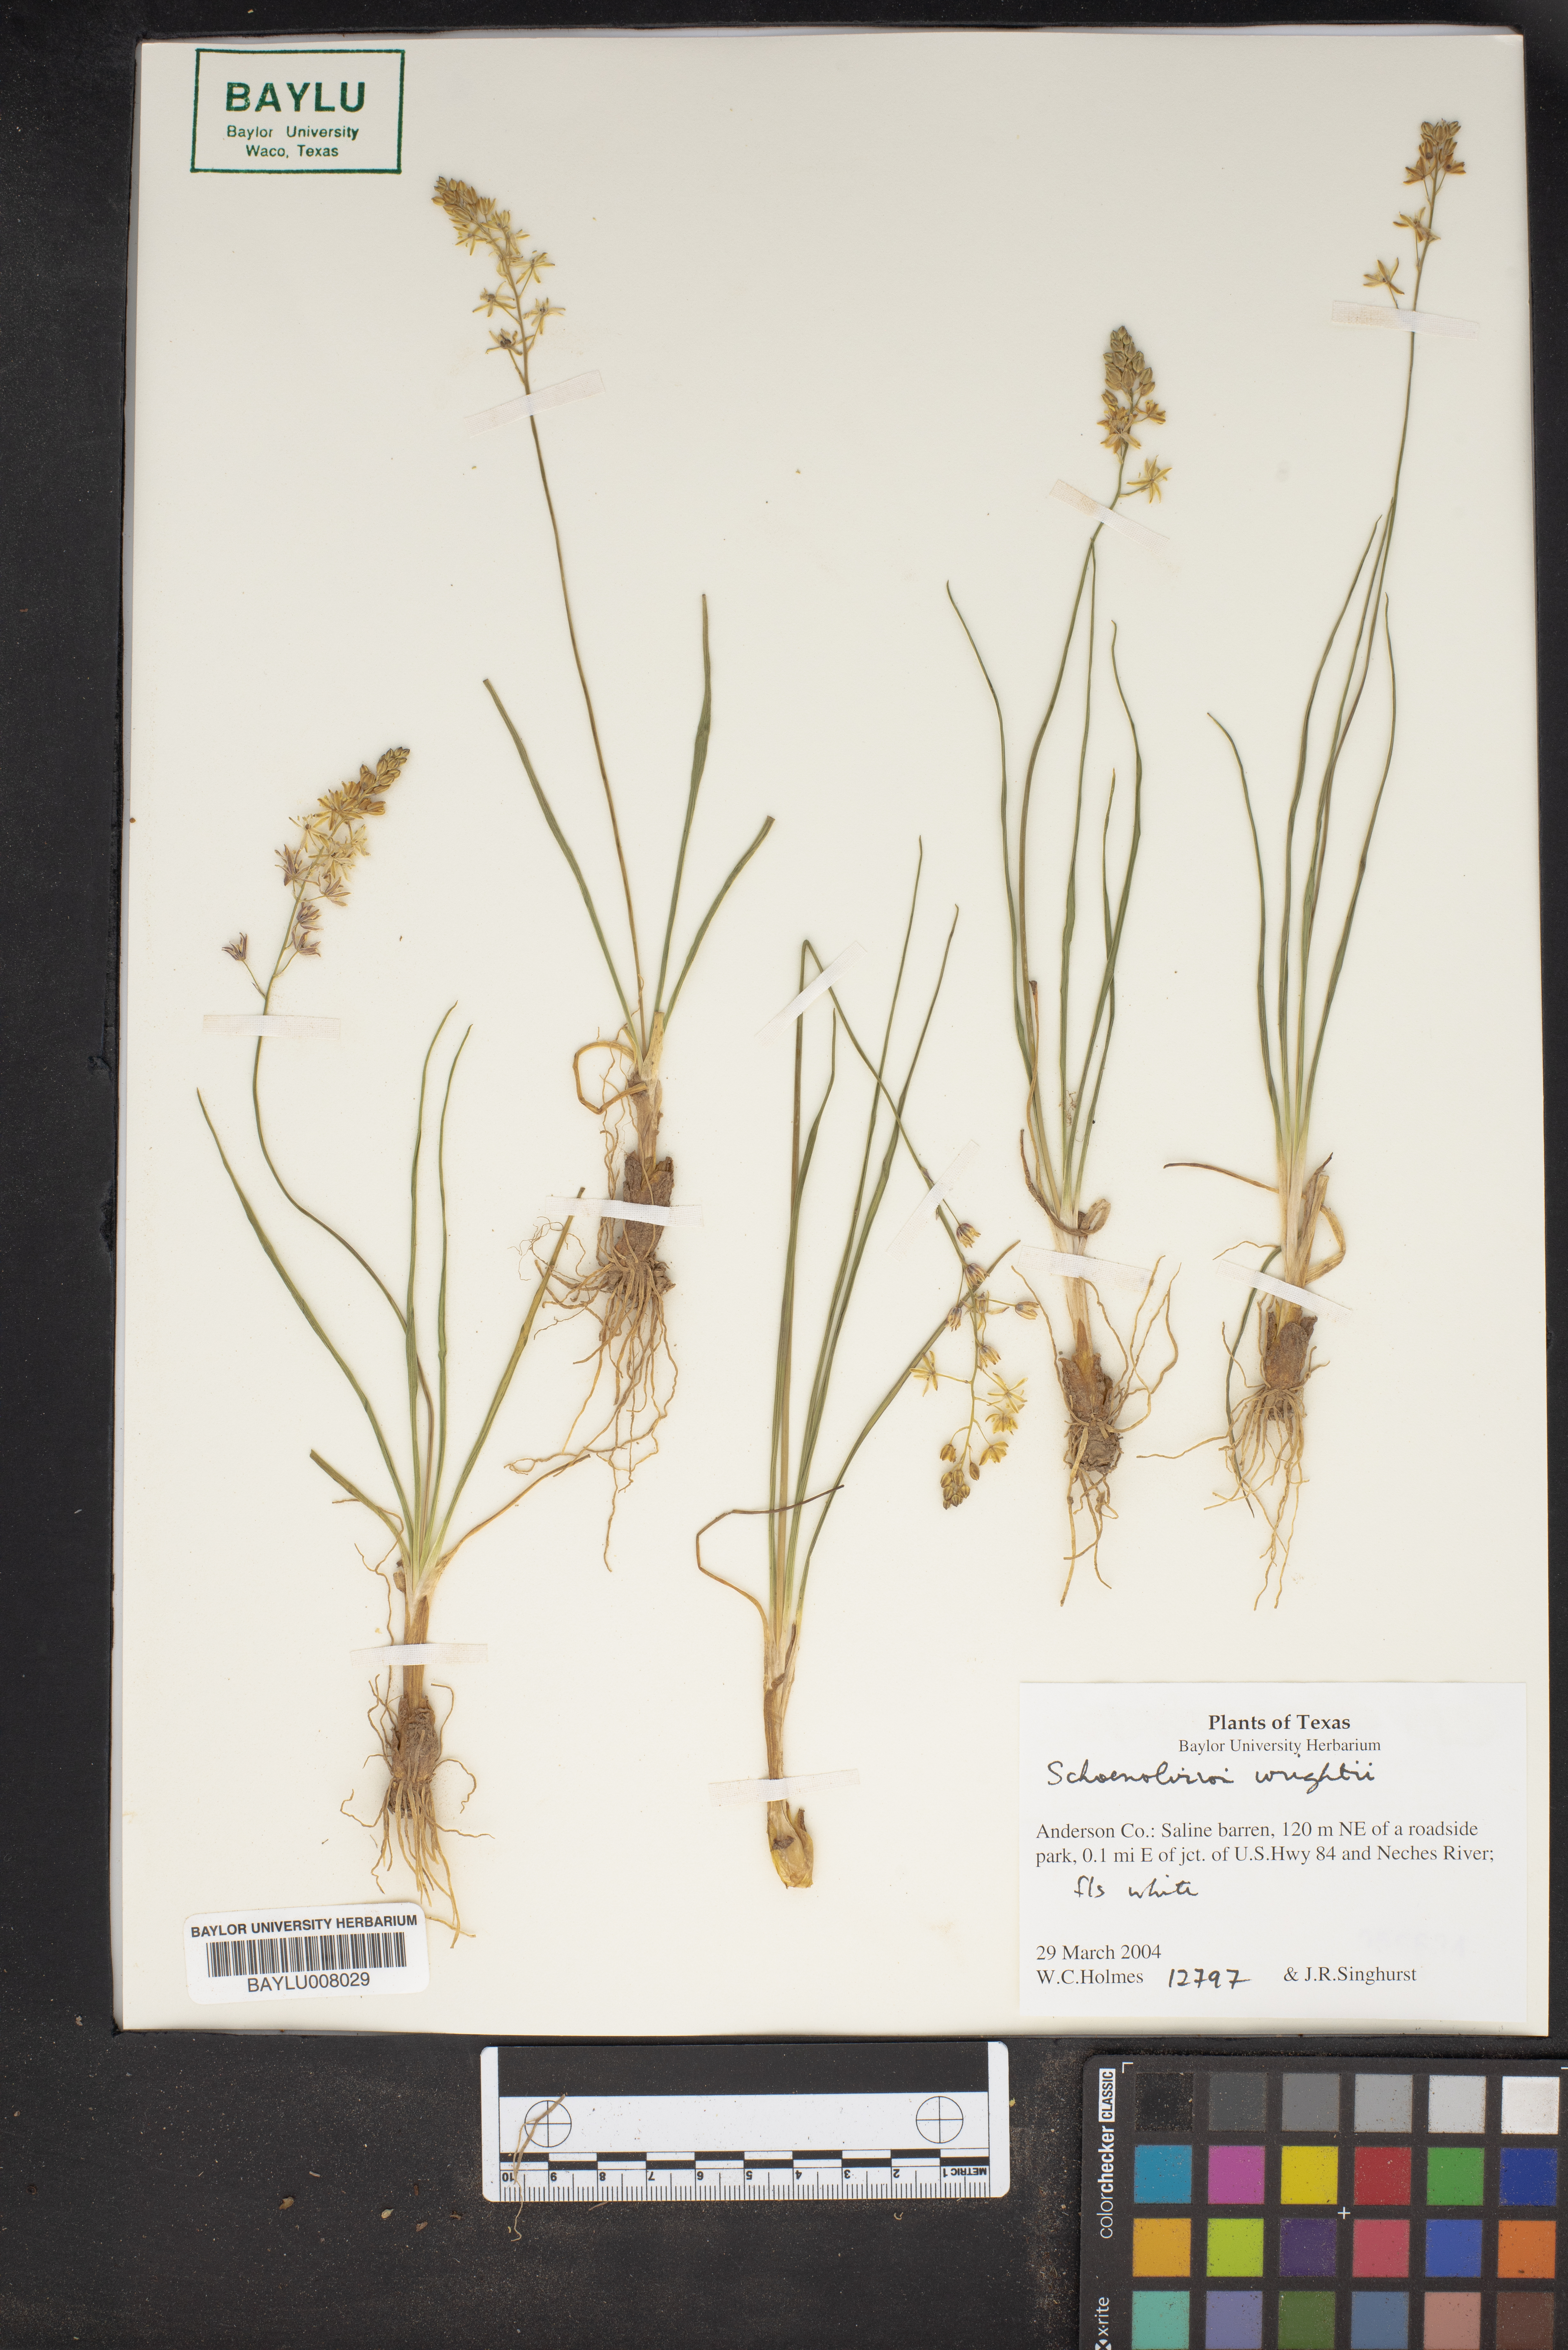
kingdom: Plantae
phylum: Tracheophyta
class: Liliopsida
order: Asparagales
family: Asparagaceae
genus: Schoenolirion
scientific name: Schoenolirion wrightii
